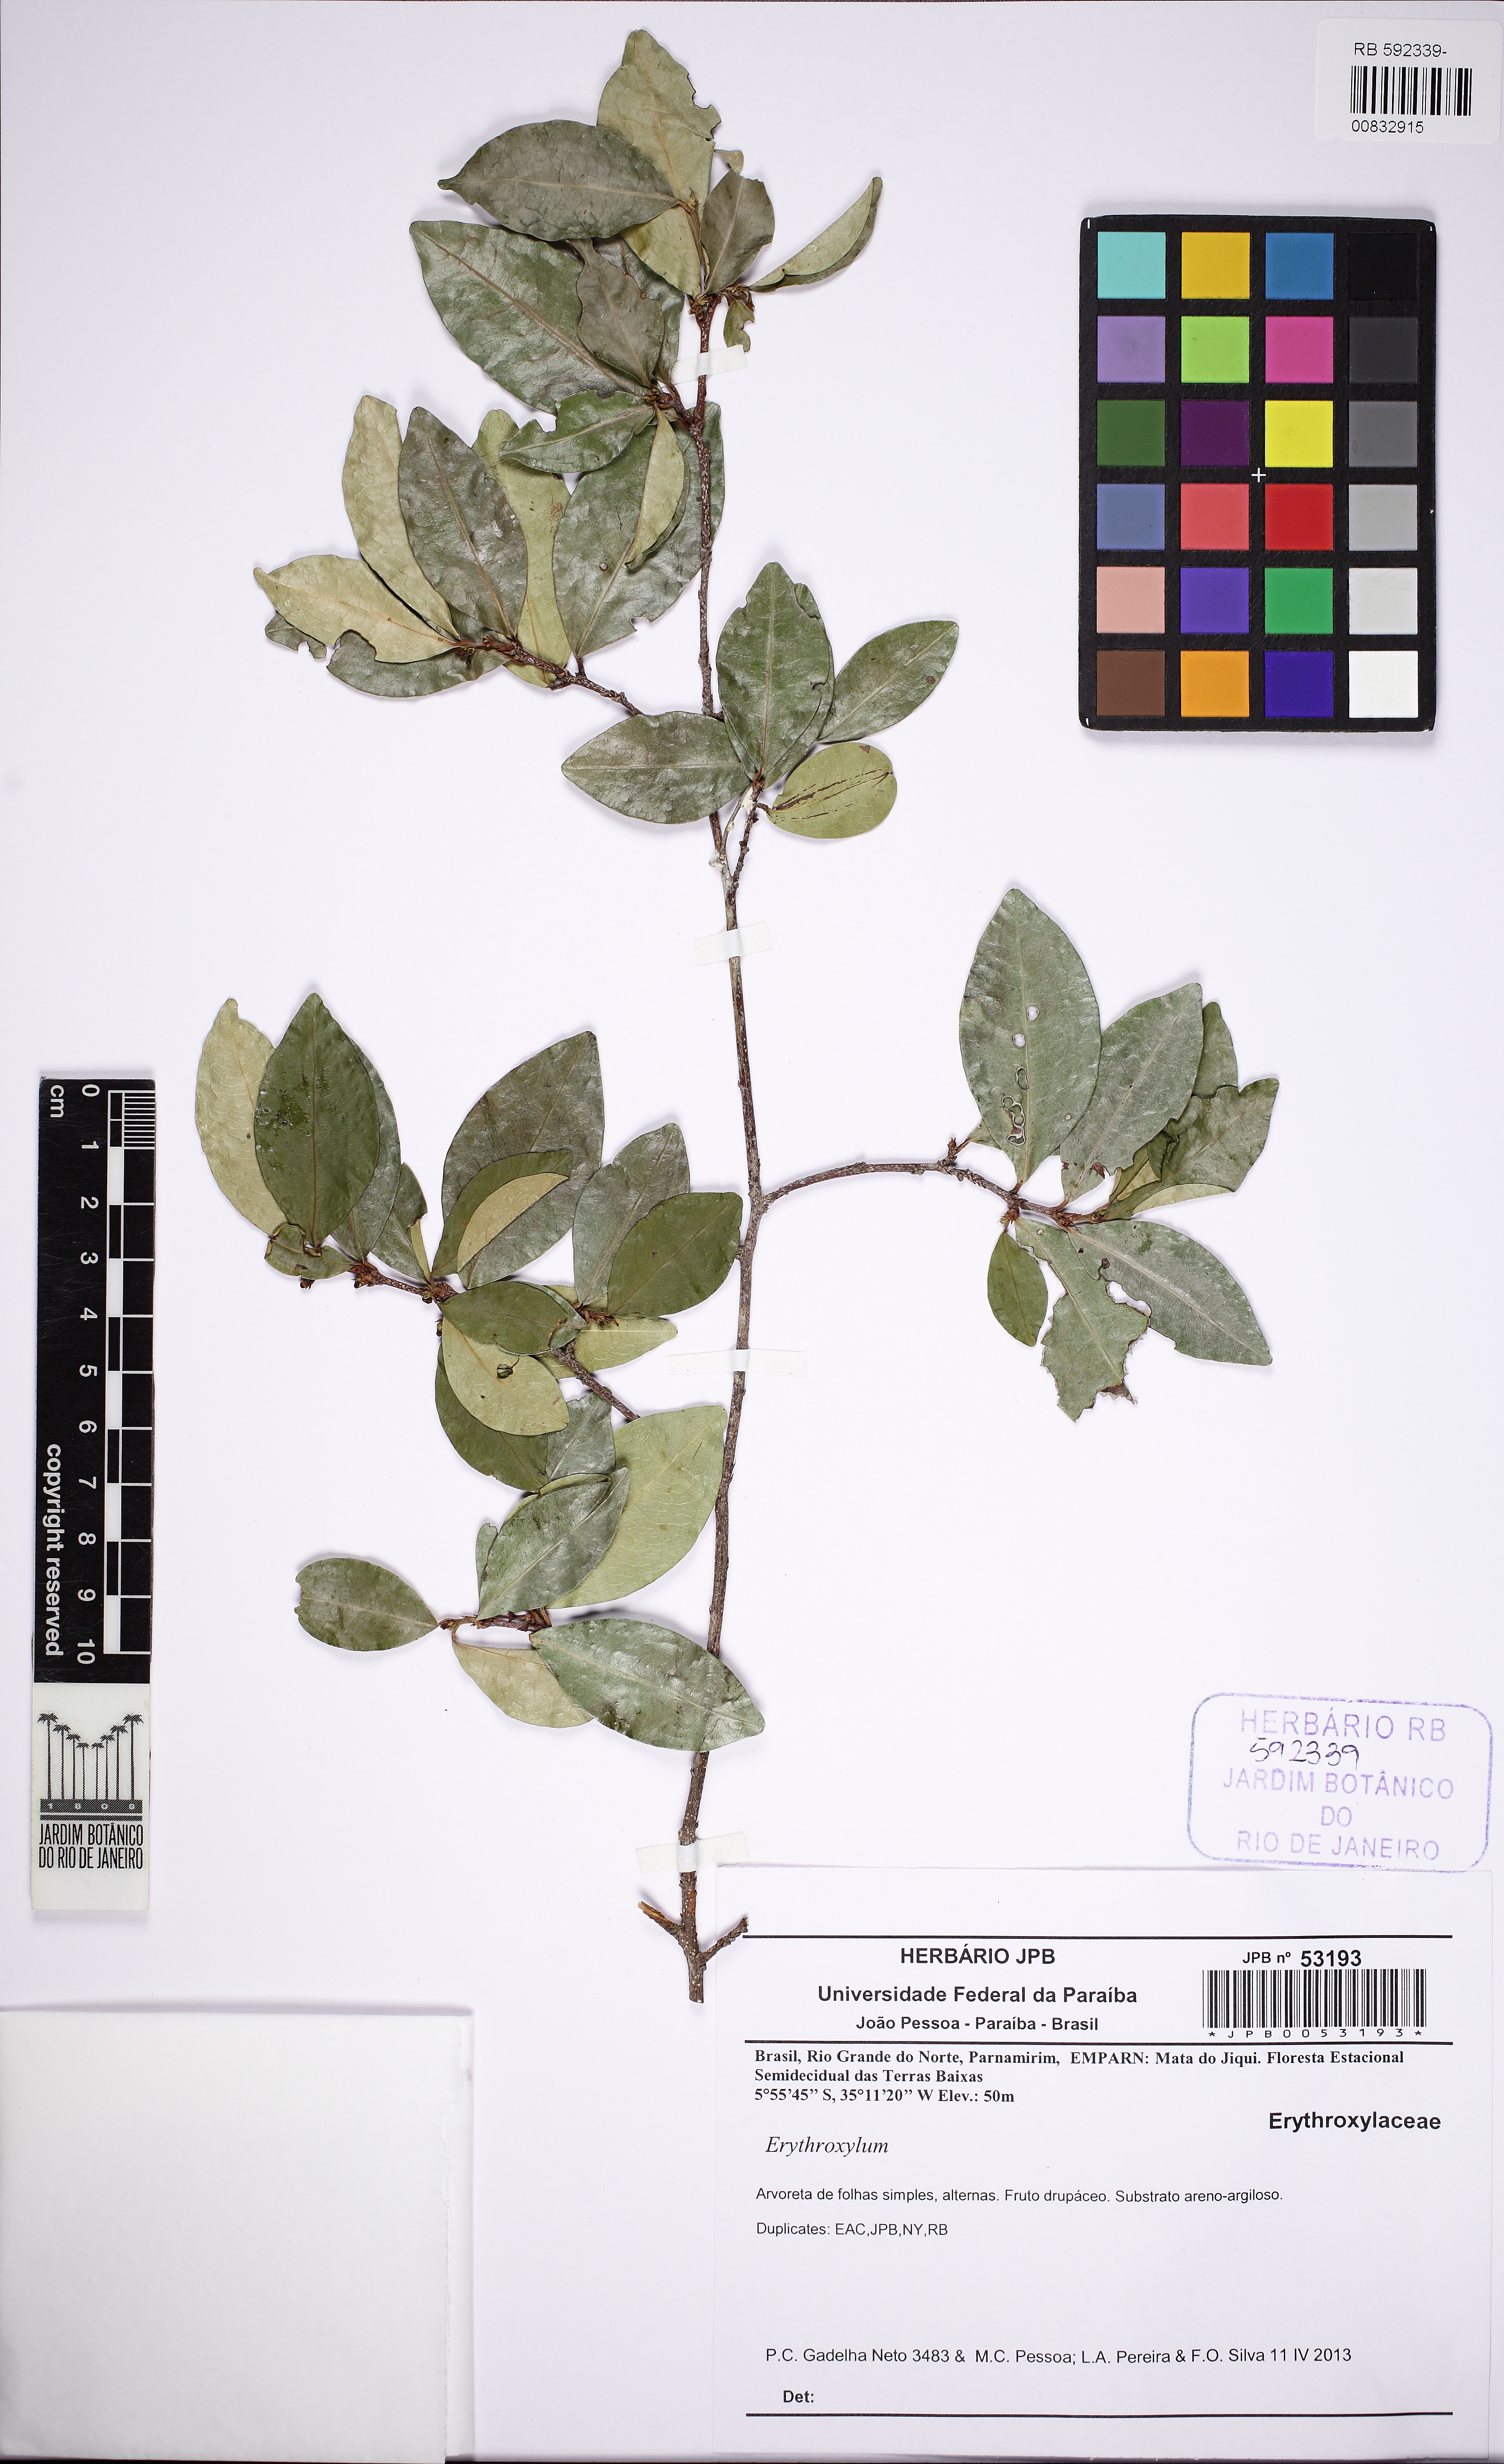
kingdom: Plantae
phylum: Tracheophyta
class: Magnoliopsida
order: Malpighiales
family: Erythroxylaceae
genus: Erythroxylum
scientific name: Erythroxylum simonis
